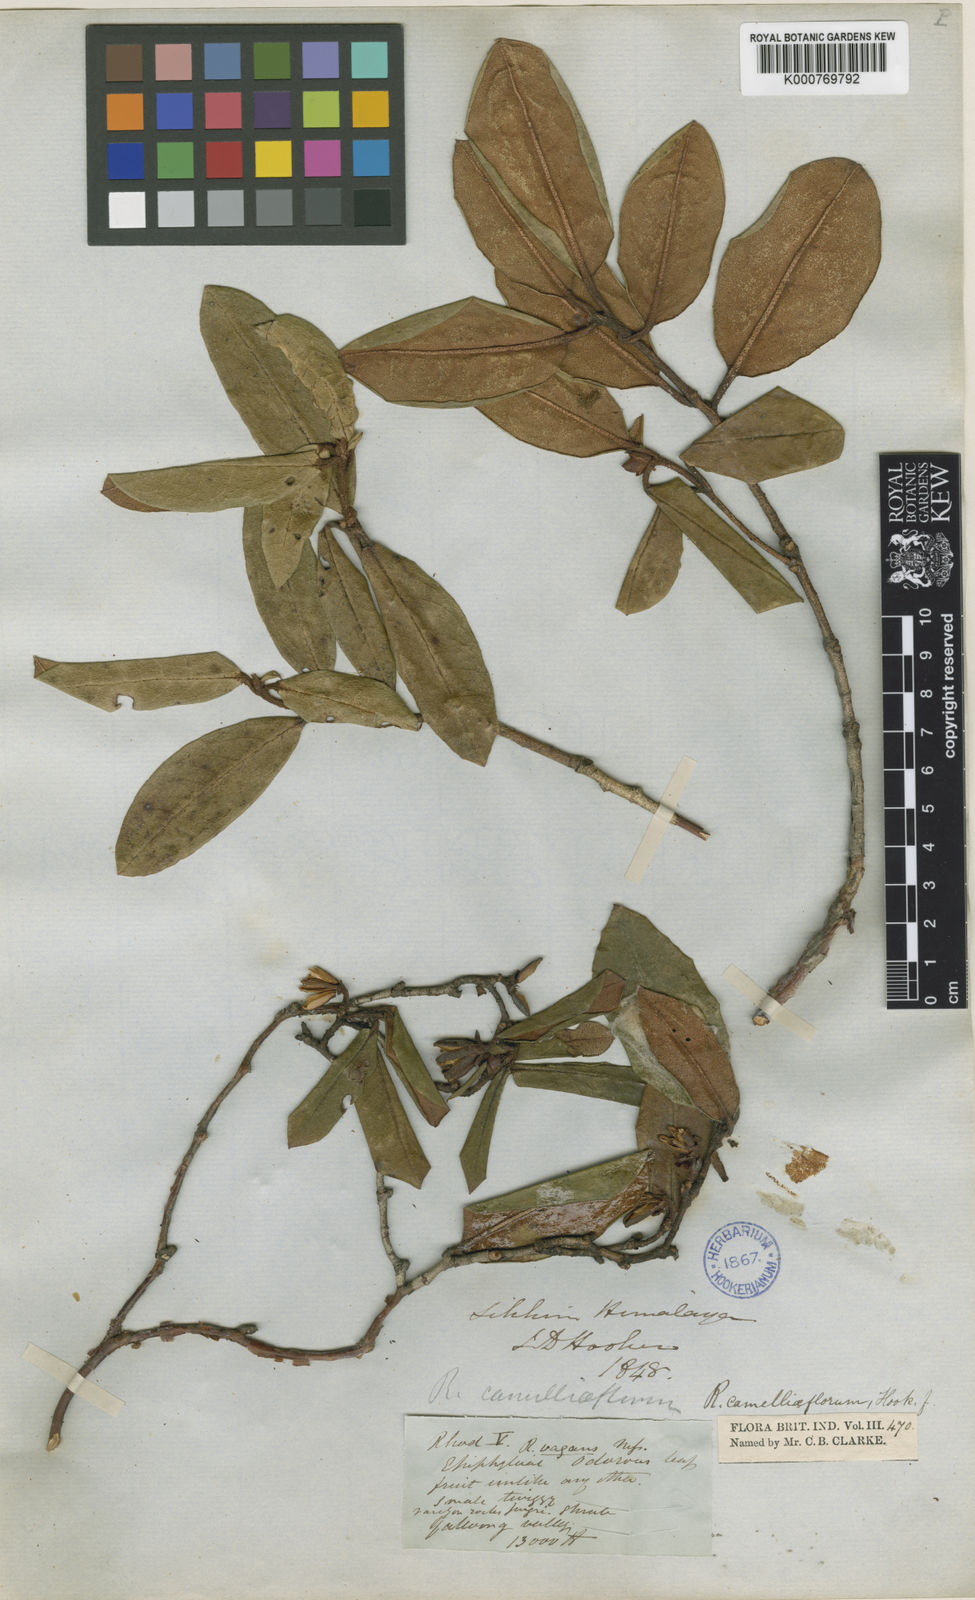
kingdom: Plantae
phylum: Tracheophyta
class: Magnoliopsida
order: Ericales
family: Ericaceae
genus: Rhododendron
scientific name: Rhododendron camelliiflorum
